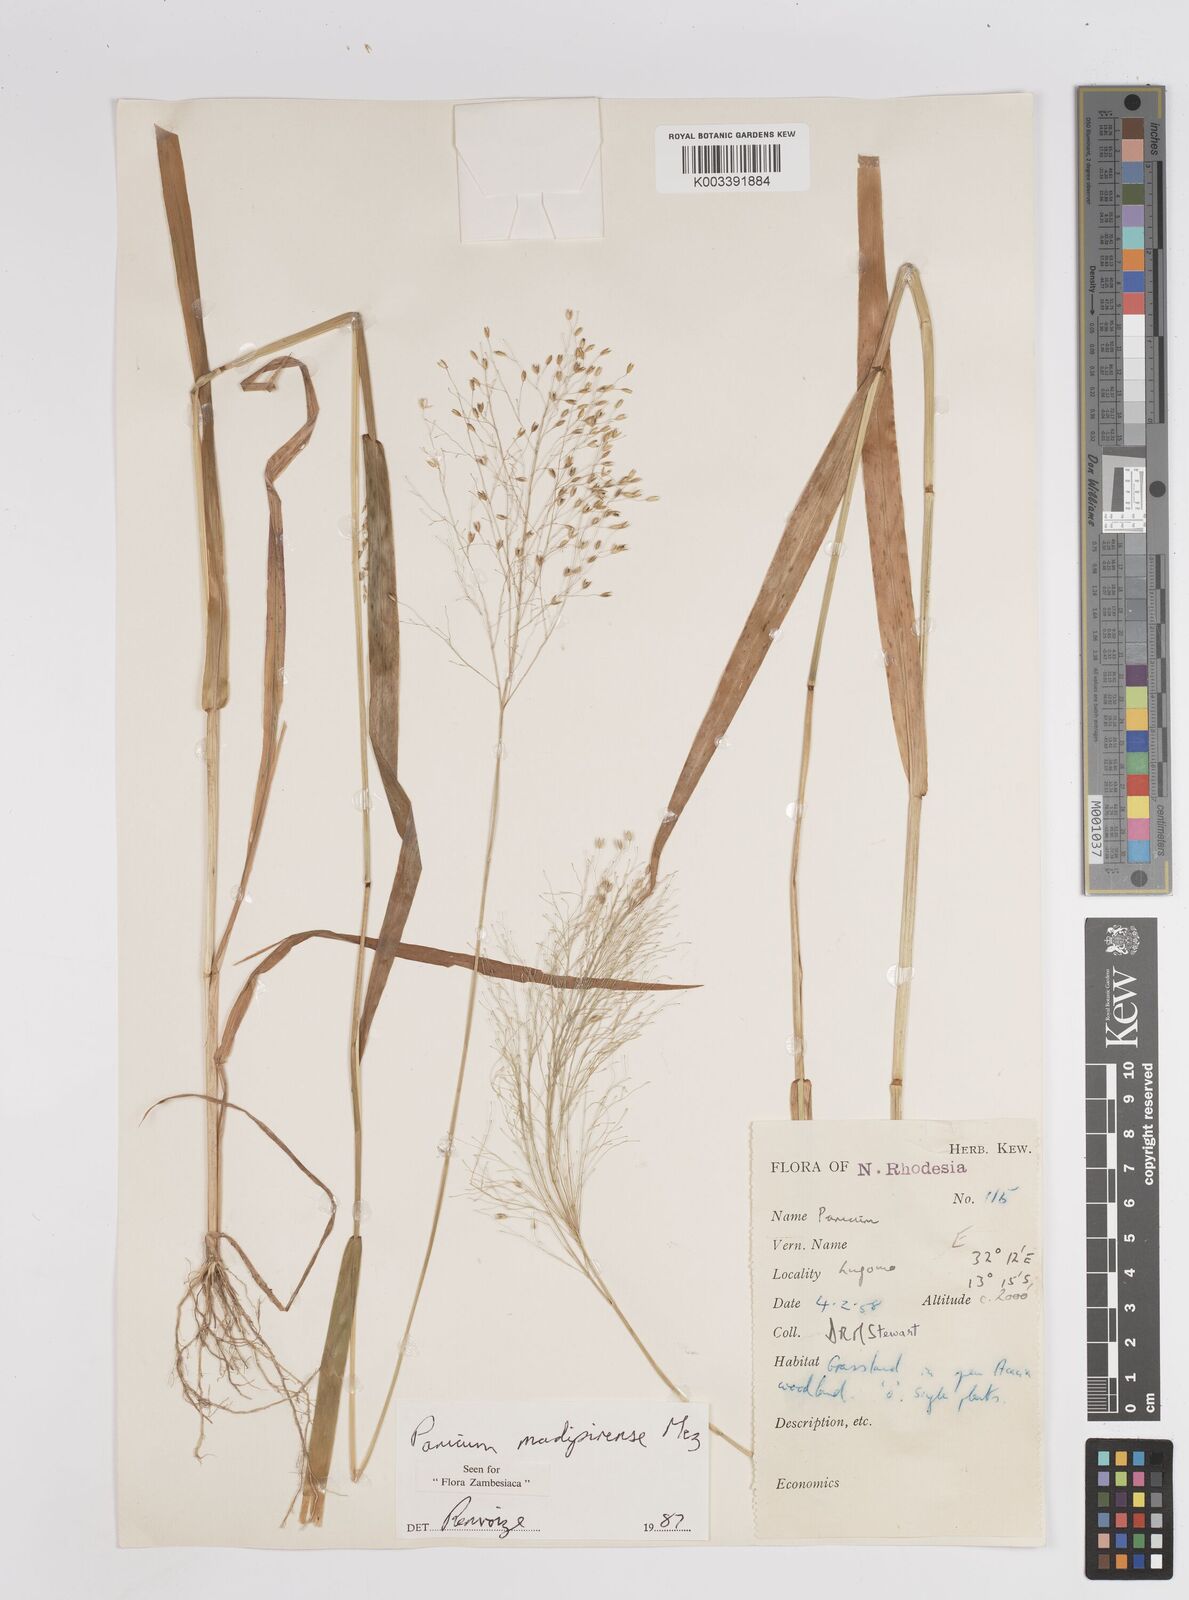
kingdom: Plantae
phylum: Tracheophyta
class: Liliopsida
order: Poales
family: Poaceae
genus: Panicum
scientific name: Panicum madipirense
